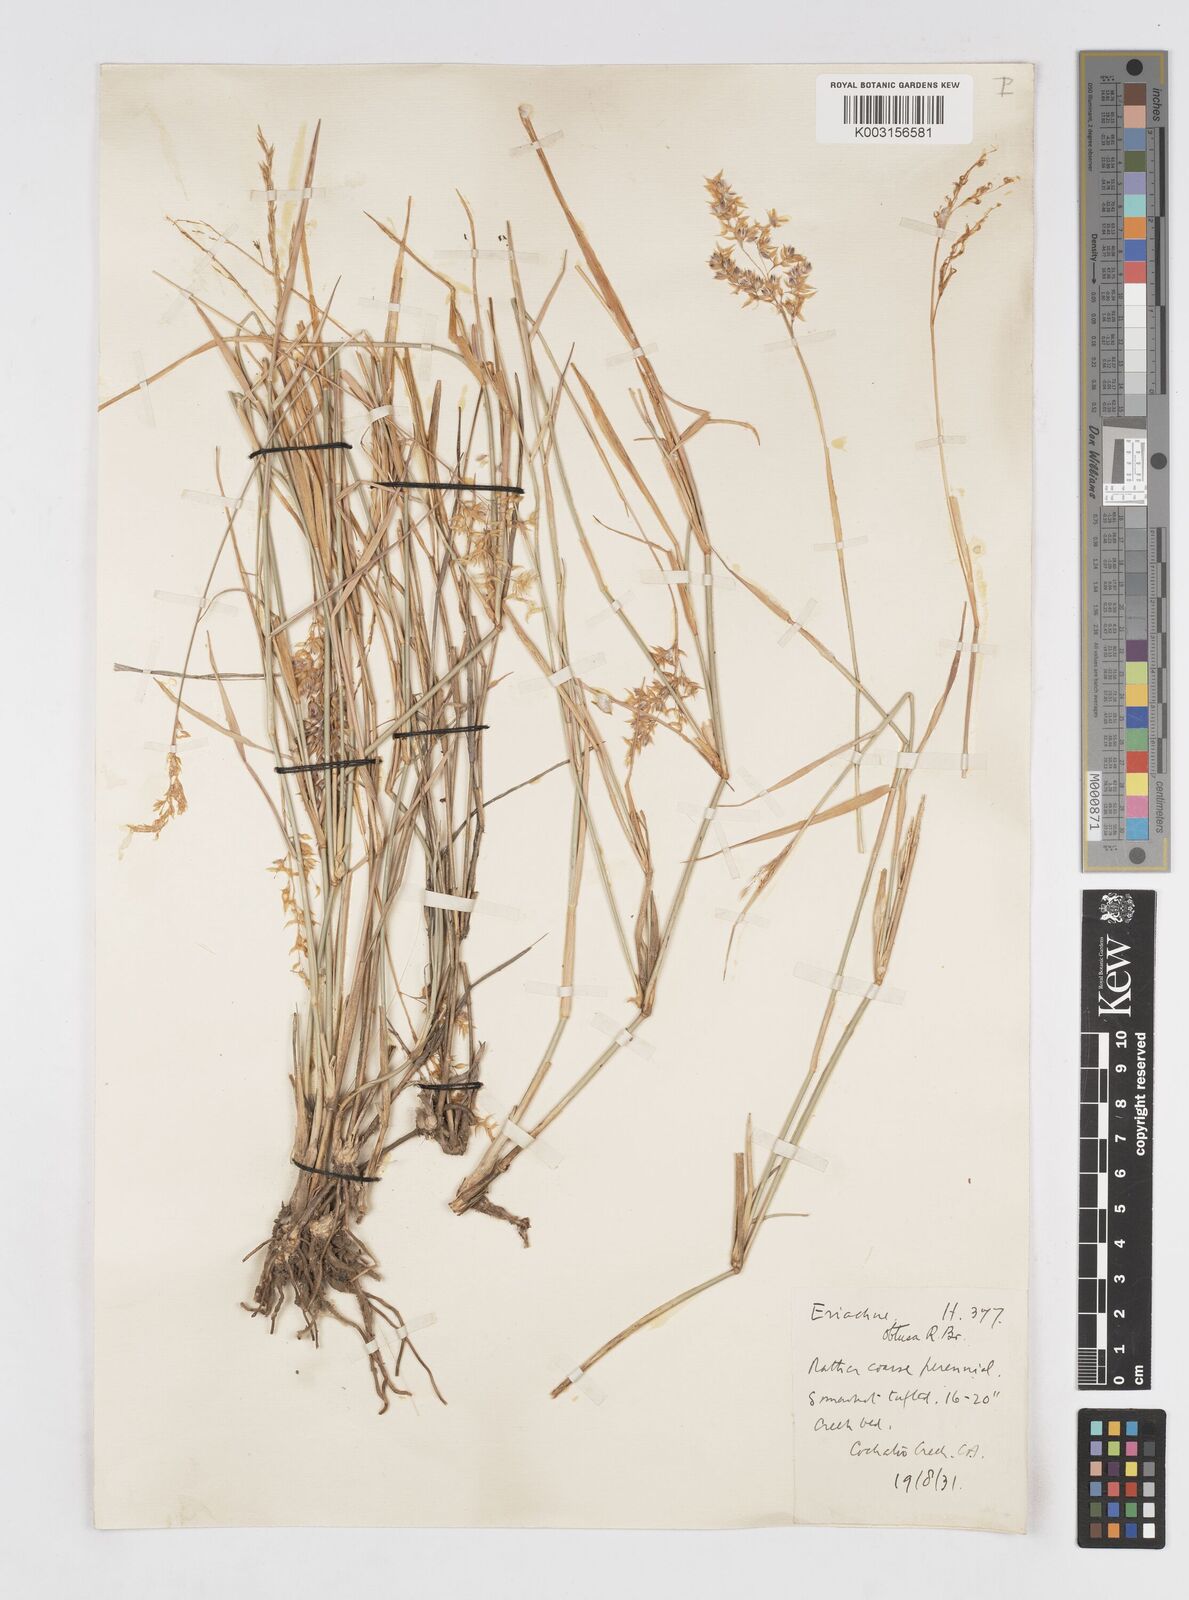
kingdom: Plantae
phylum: Tracheophyta
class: Liliopsida
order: Poales
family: Poaceae
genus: Eriachne
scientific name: Eriachne obtusa
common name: Northern wanderrie grass
